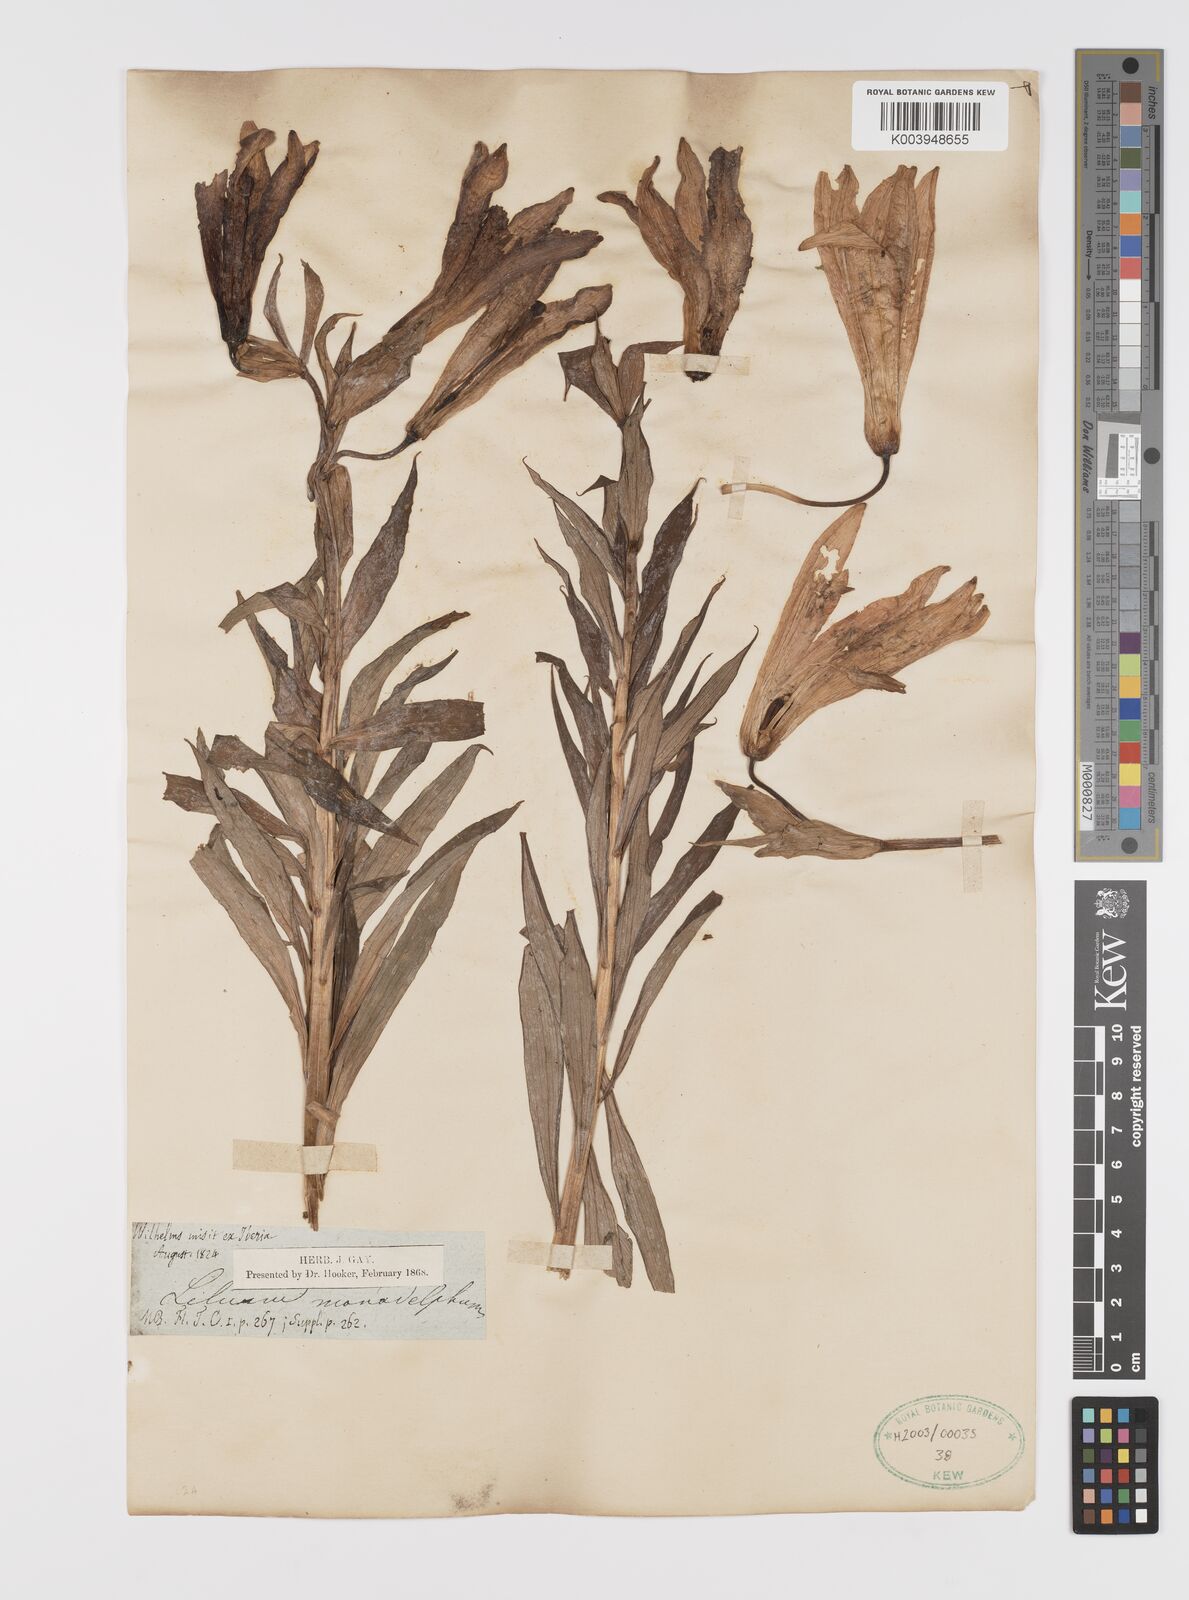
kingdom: Plantae
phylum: Tracheophyta
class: Liliopsida
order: Liliales
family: Liliaceae
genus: Lilium
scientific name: Lilium monadelphum
